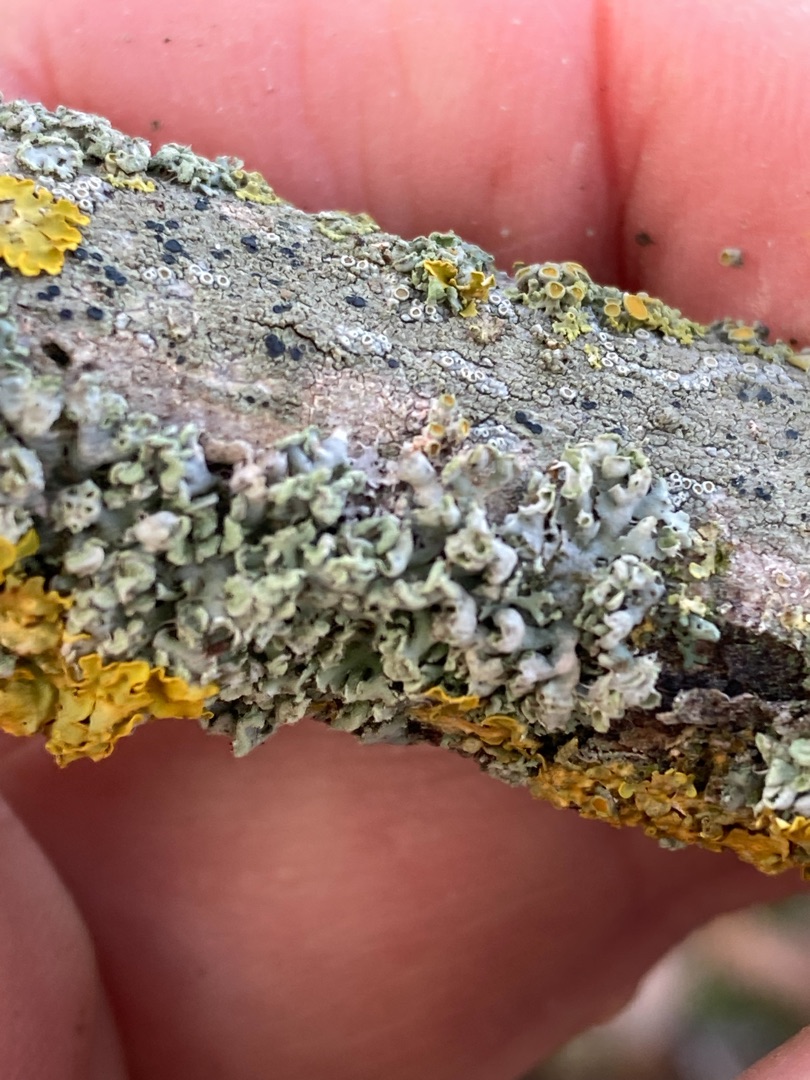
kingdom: Fungi
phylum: Ascomycota
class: Lecanoromycetes
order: Caliciales
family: Physciaceae
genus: Physcia
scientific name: Physcia
